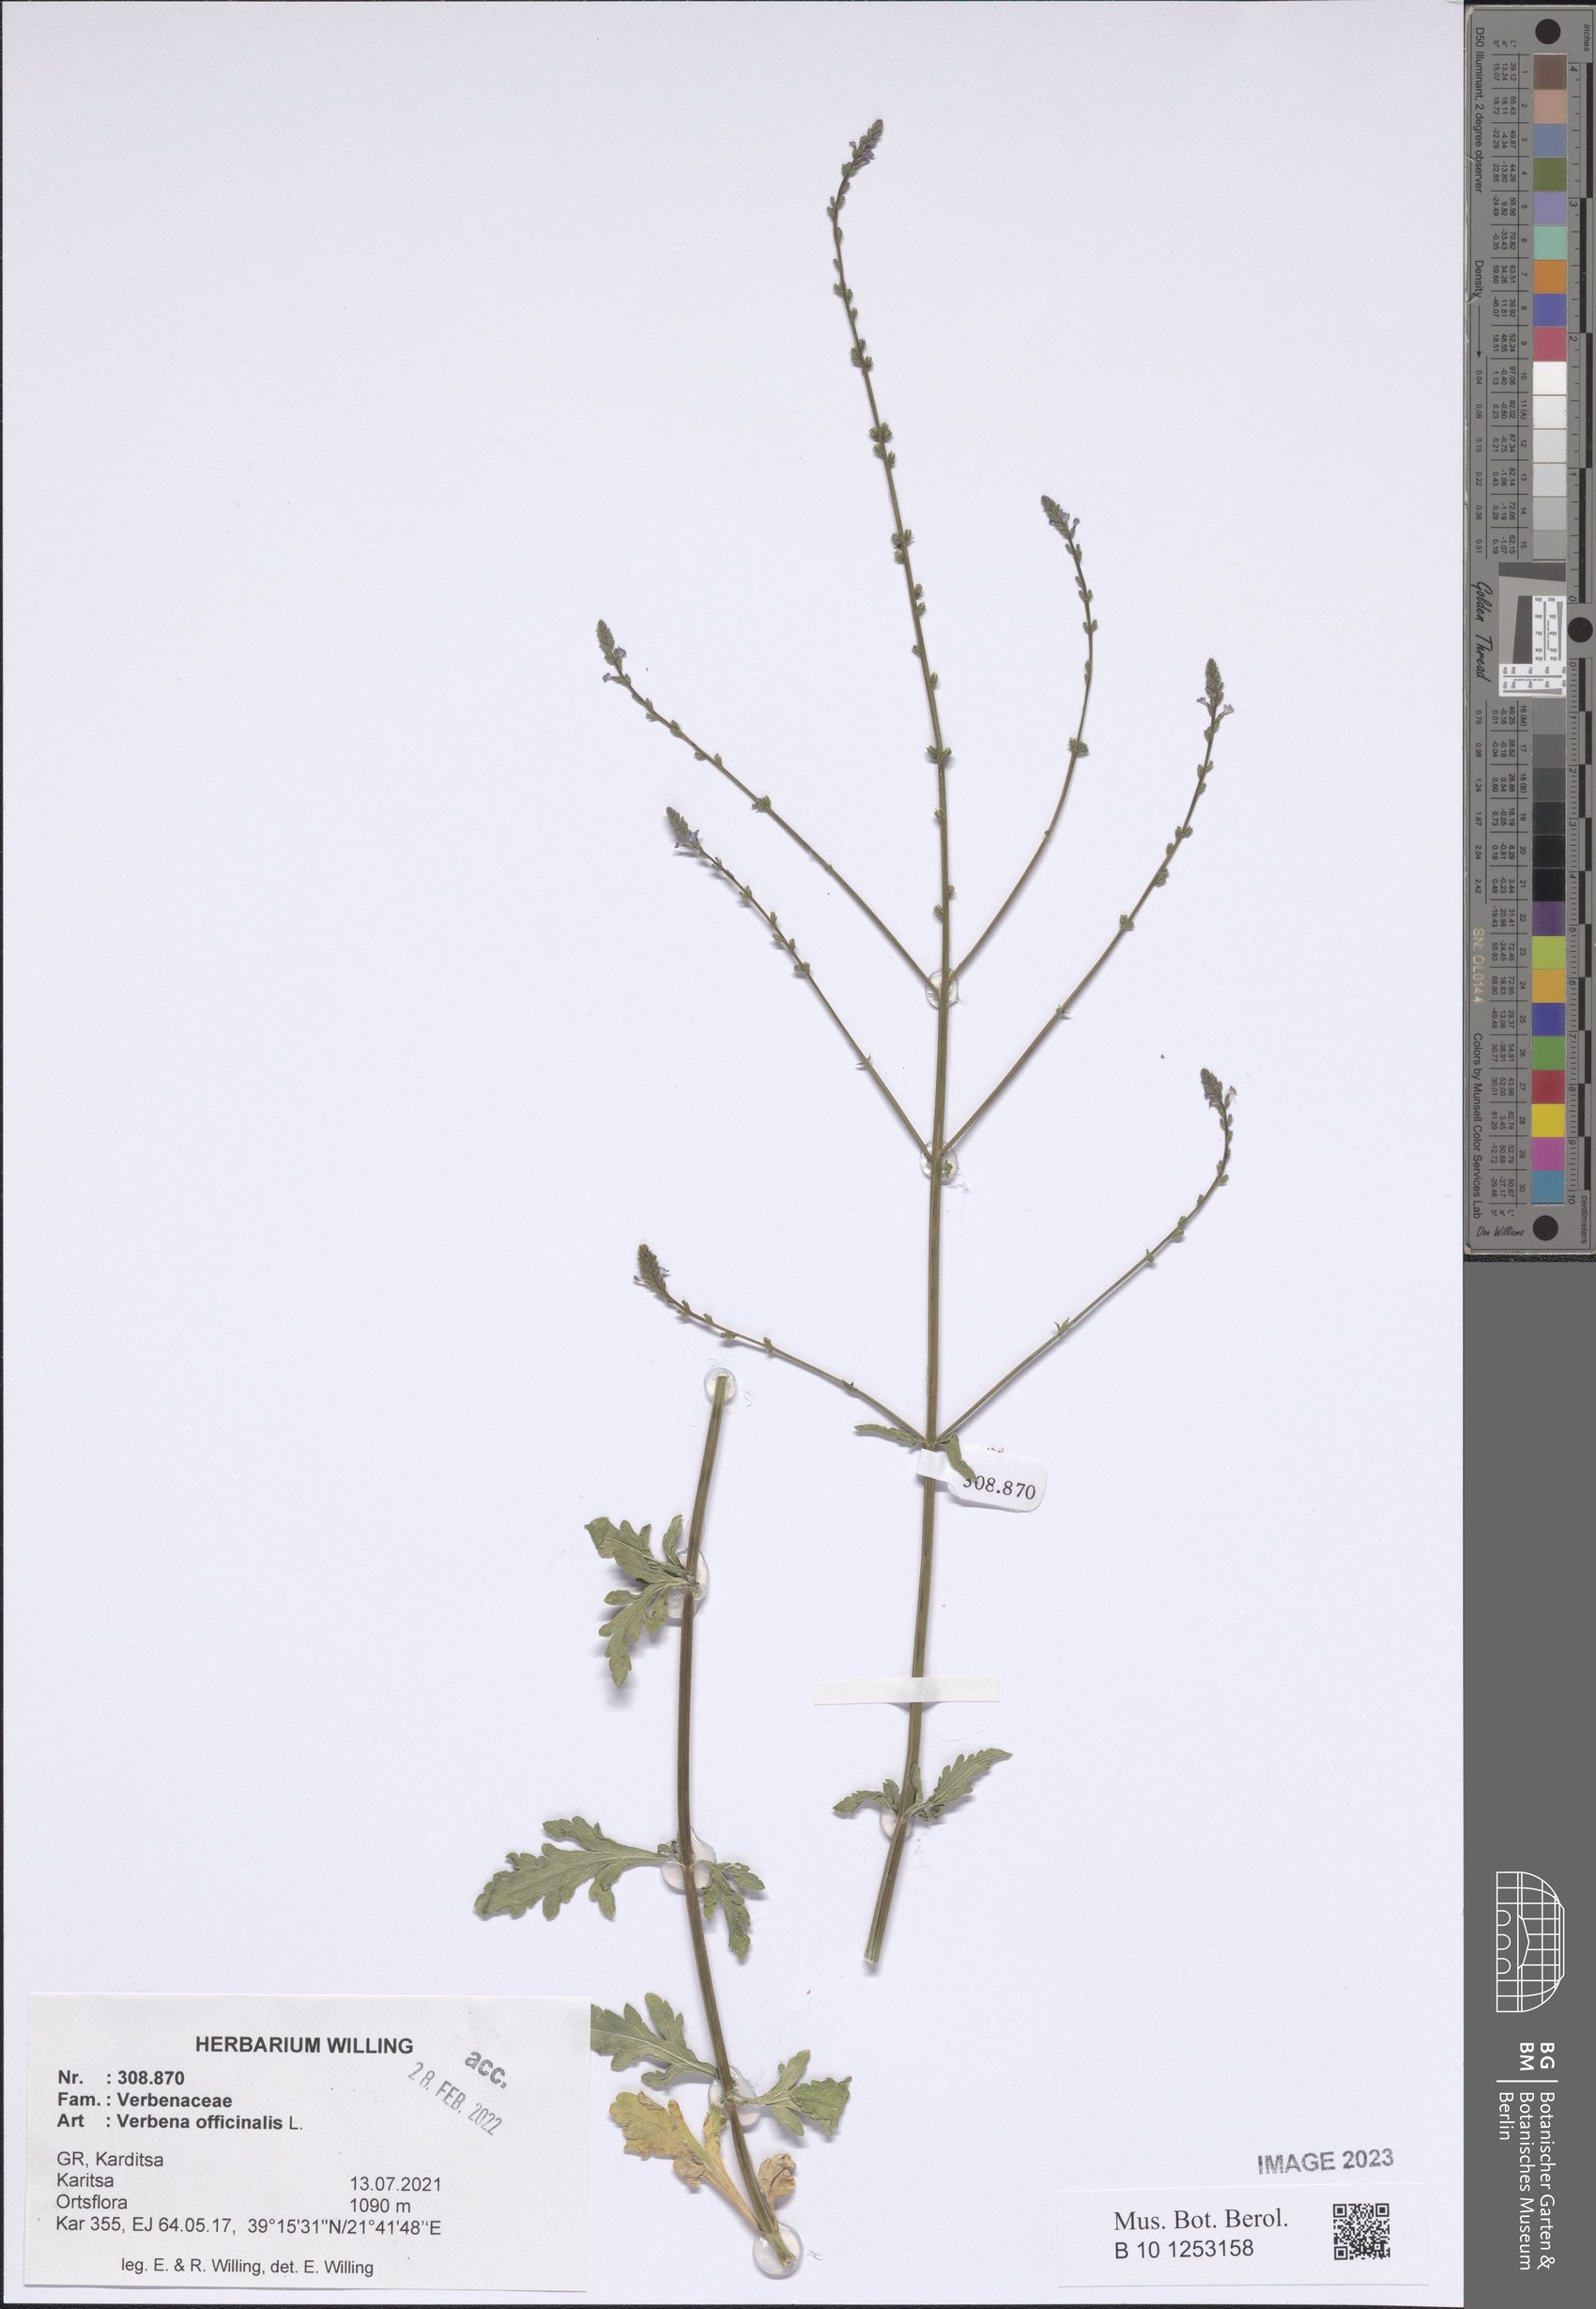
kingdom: Plantae
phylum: Tracheophyta
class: Magnoliopsida
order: Lamiales
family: Verbenaceae
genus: Verbena
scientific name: Verbena officinalis
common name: Vervain
